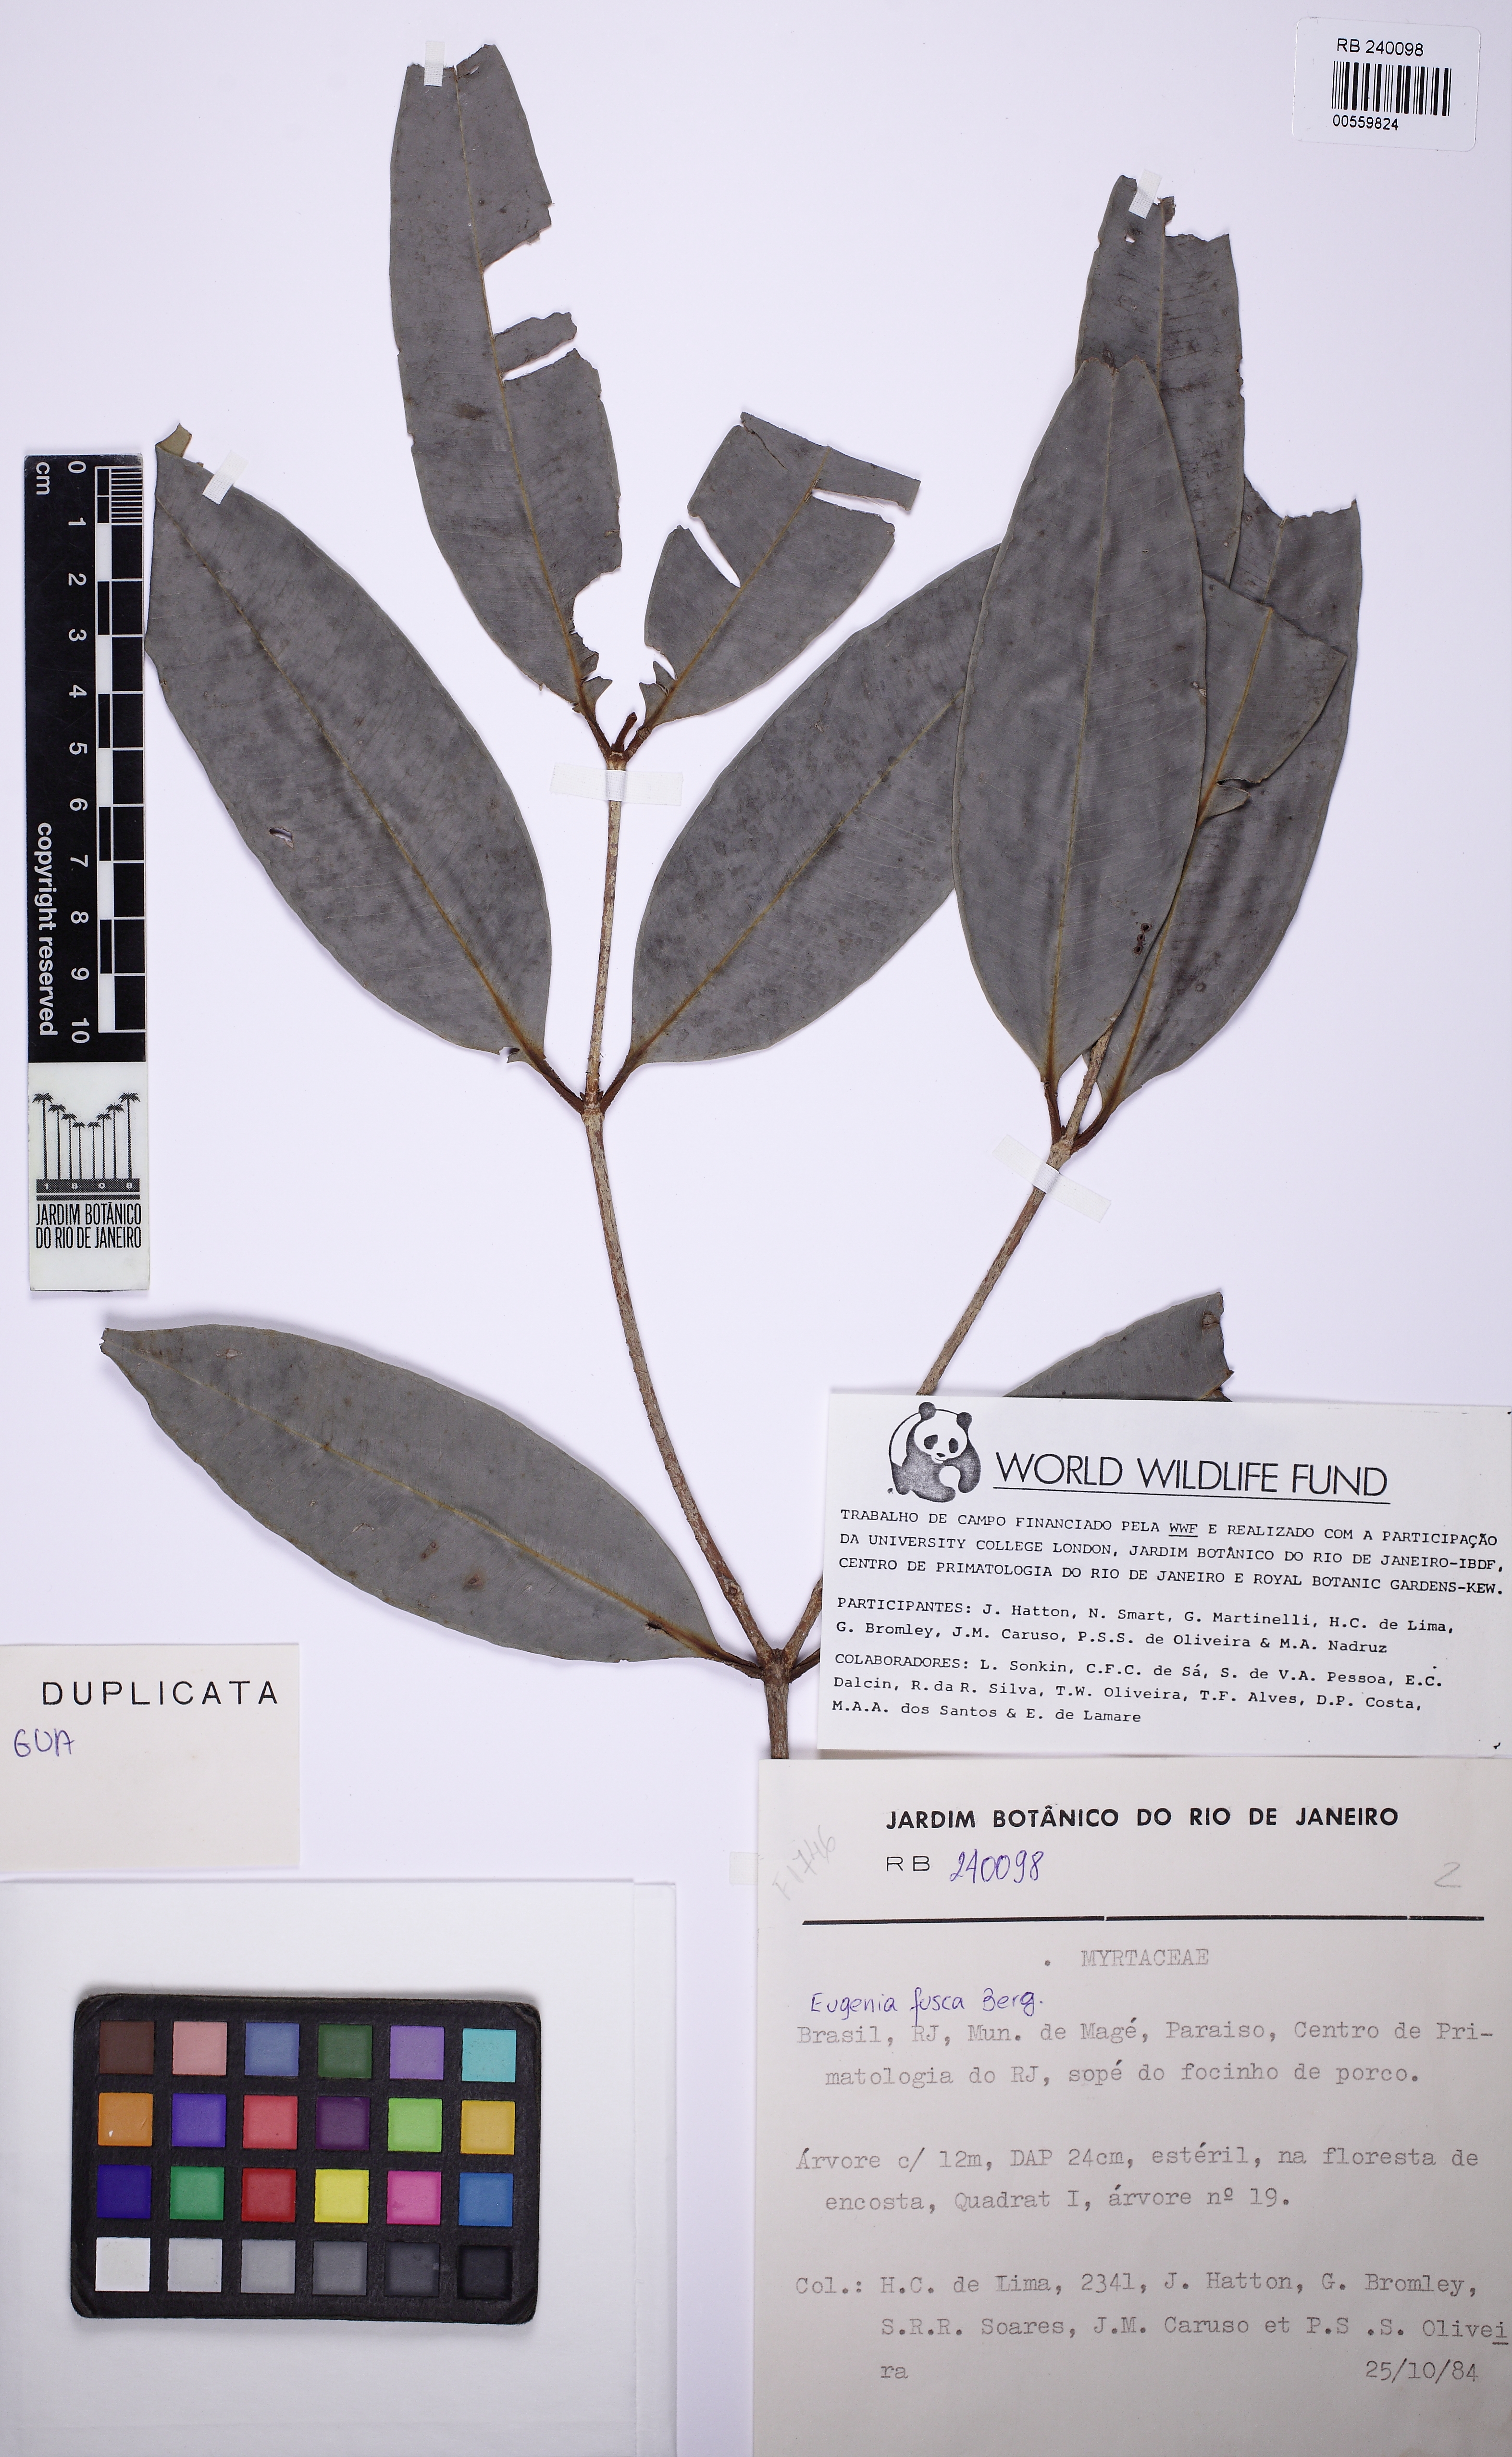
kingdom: Plantae
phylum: Tracheophyta
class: Magnoliopsida
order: Myrtales
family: Myrtaceae
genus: Eugenia
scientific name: Eugenia fusca
